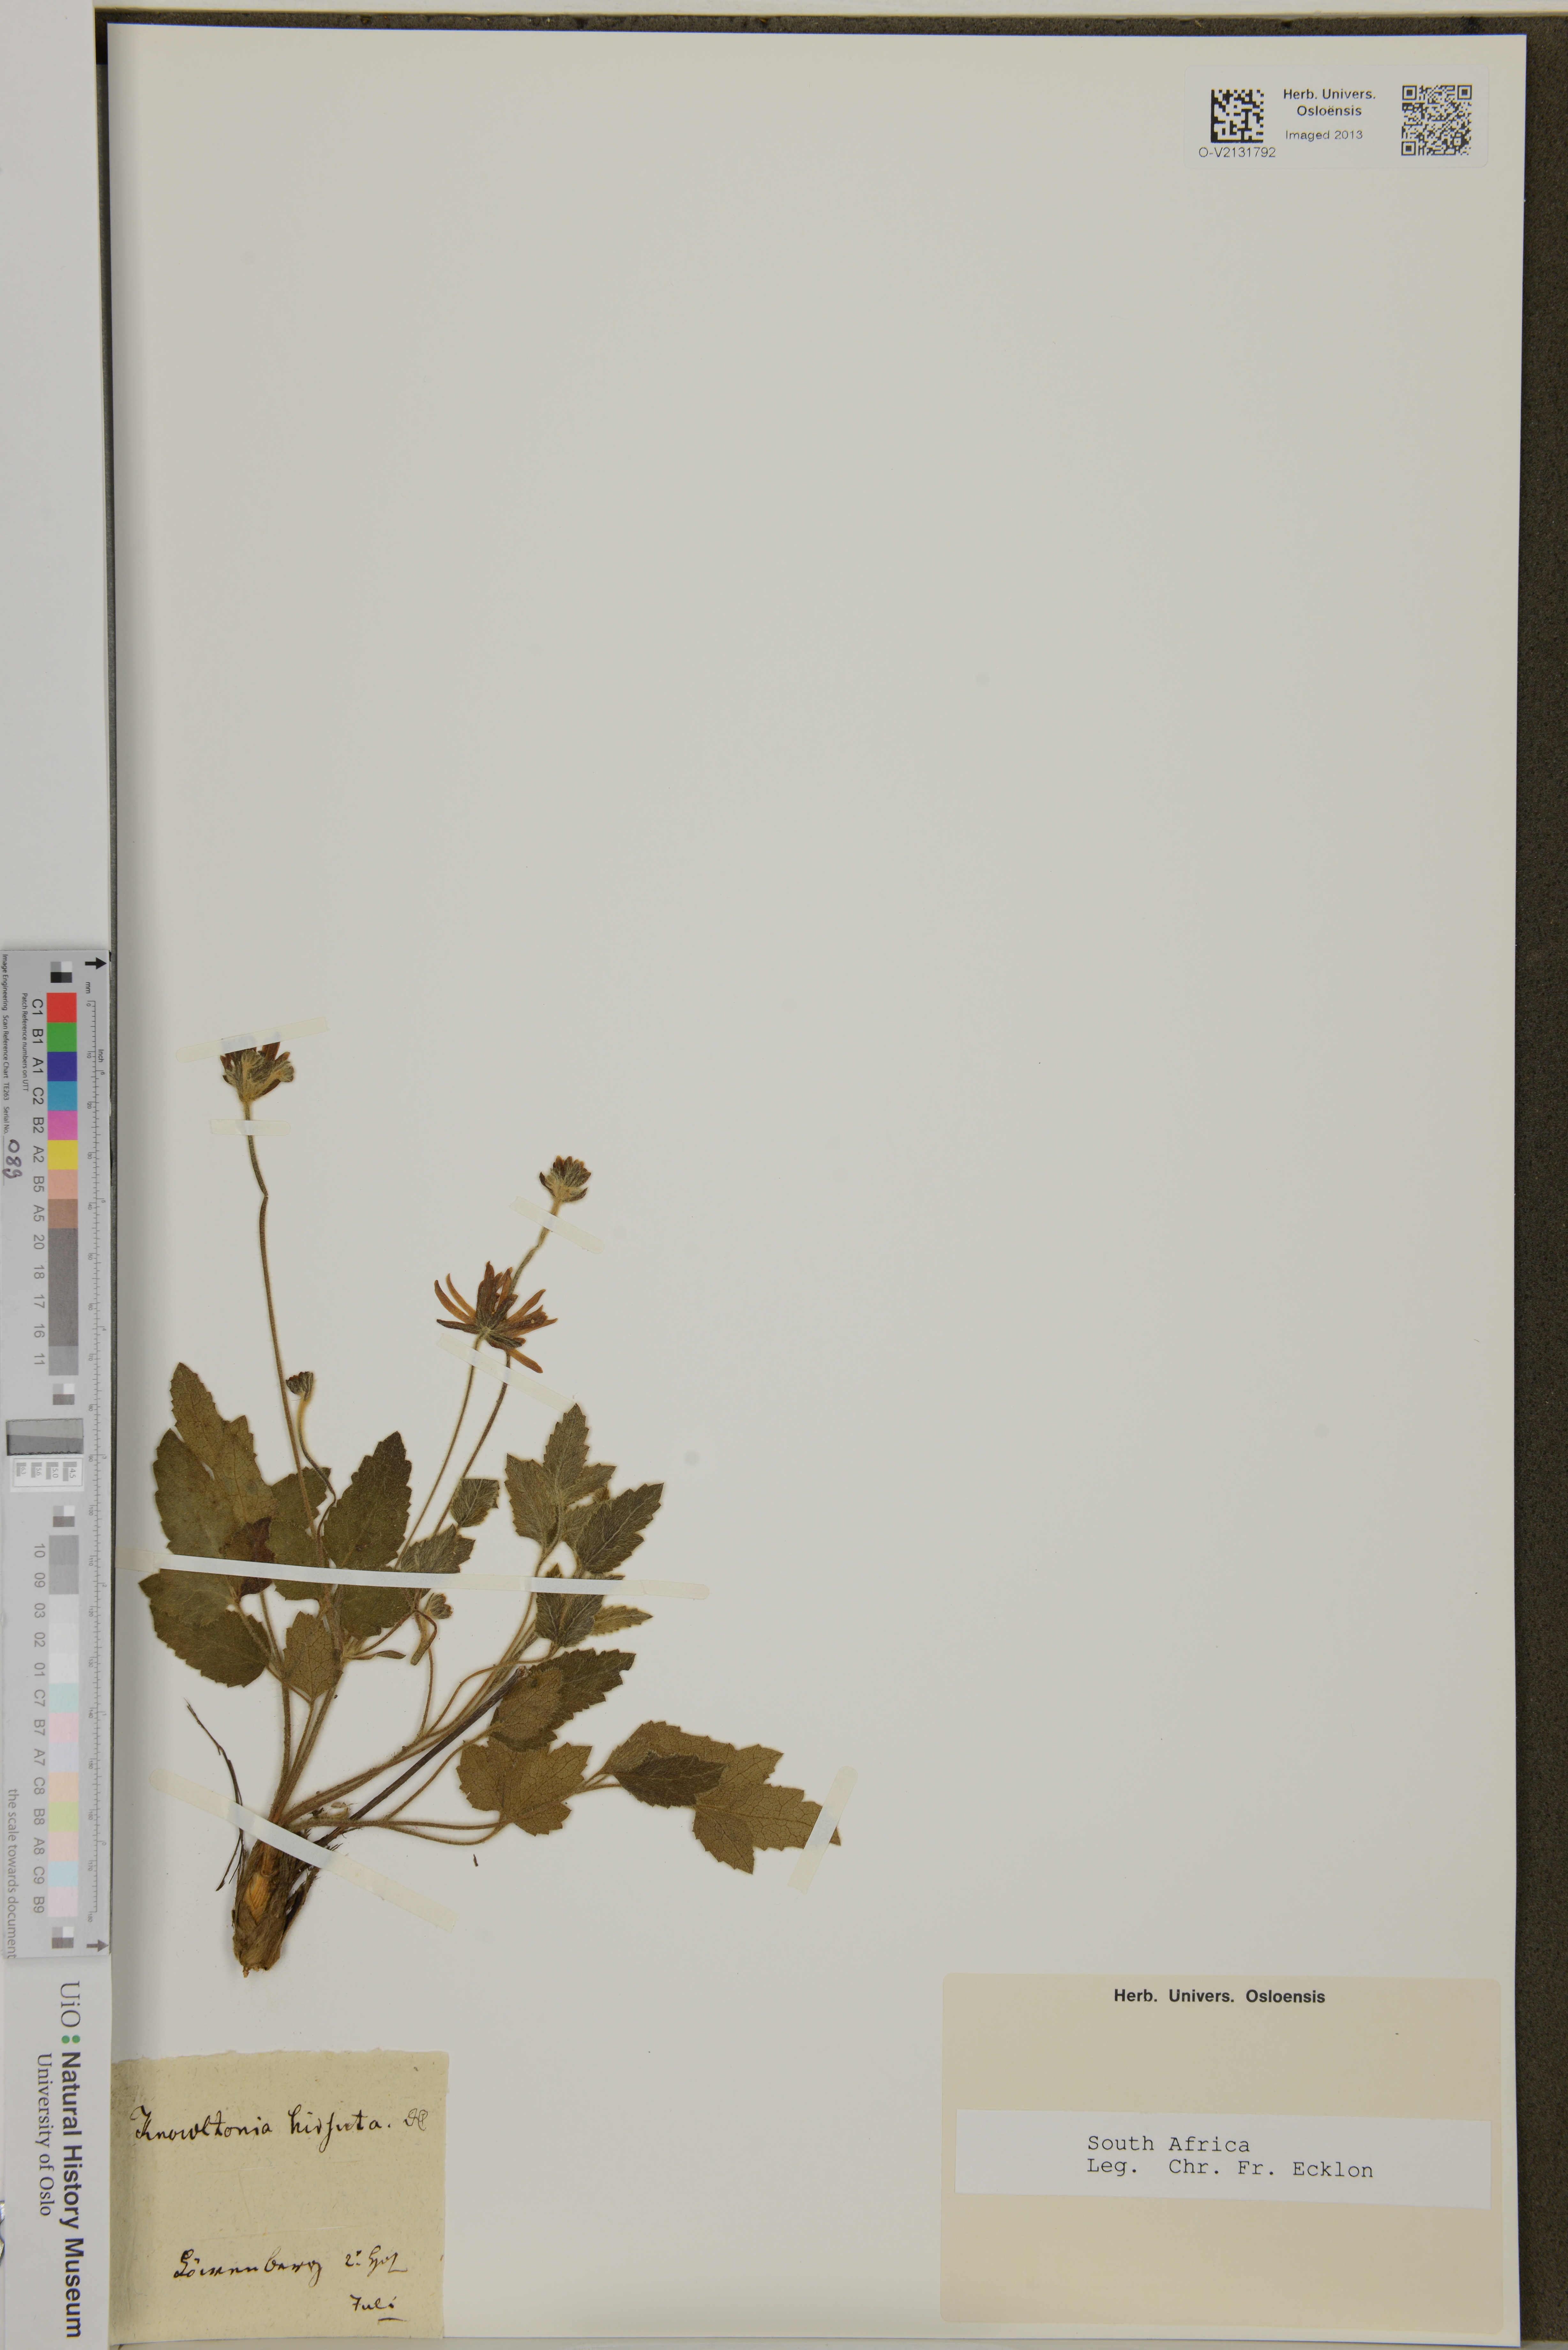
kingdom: Plantae
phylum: Tracheophyta
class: Magnoliopsida
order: Ranunculales
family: Ranunculaceae
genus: Knowltonia
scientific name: Knowltonia capensis
